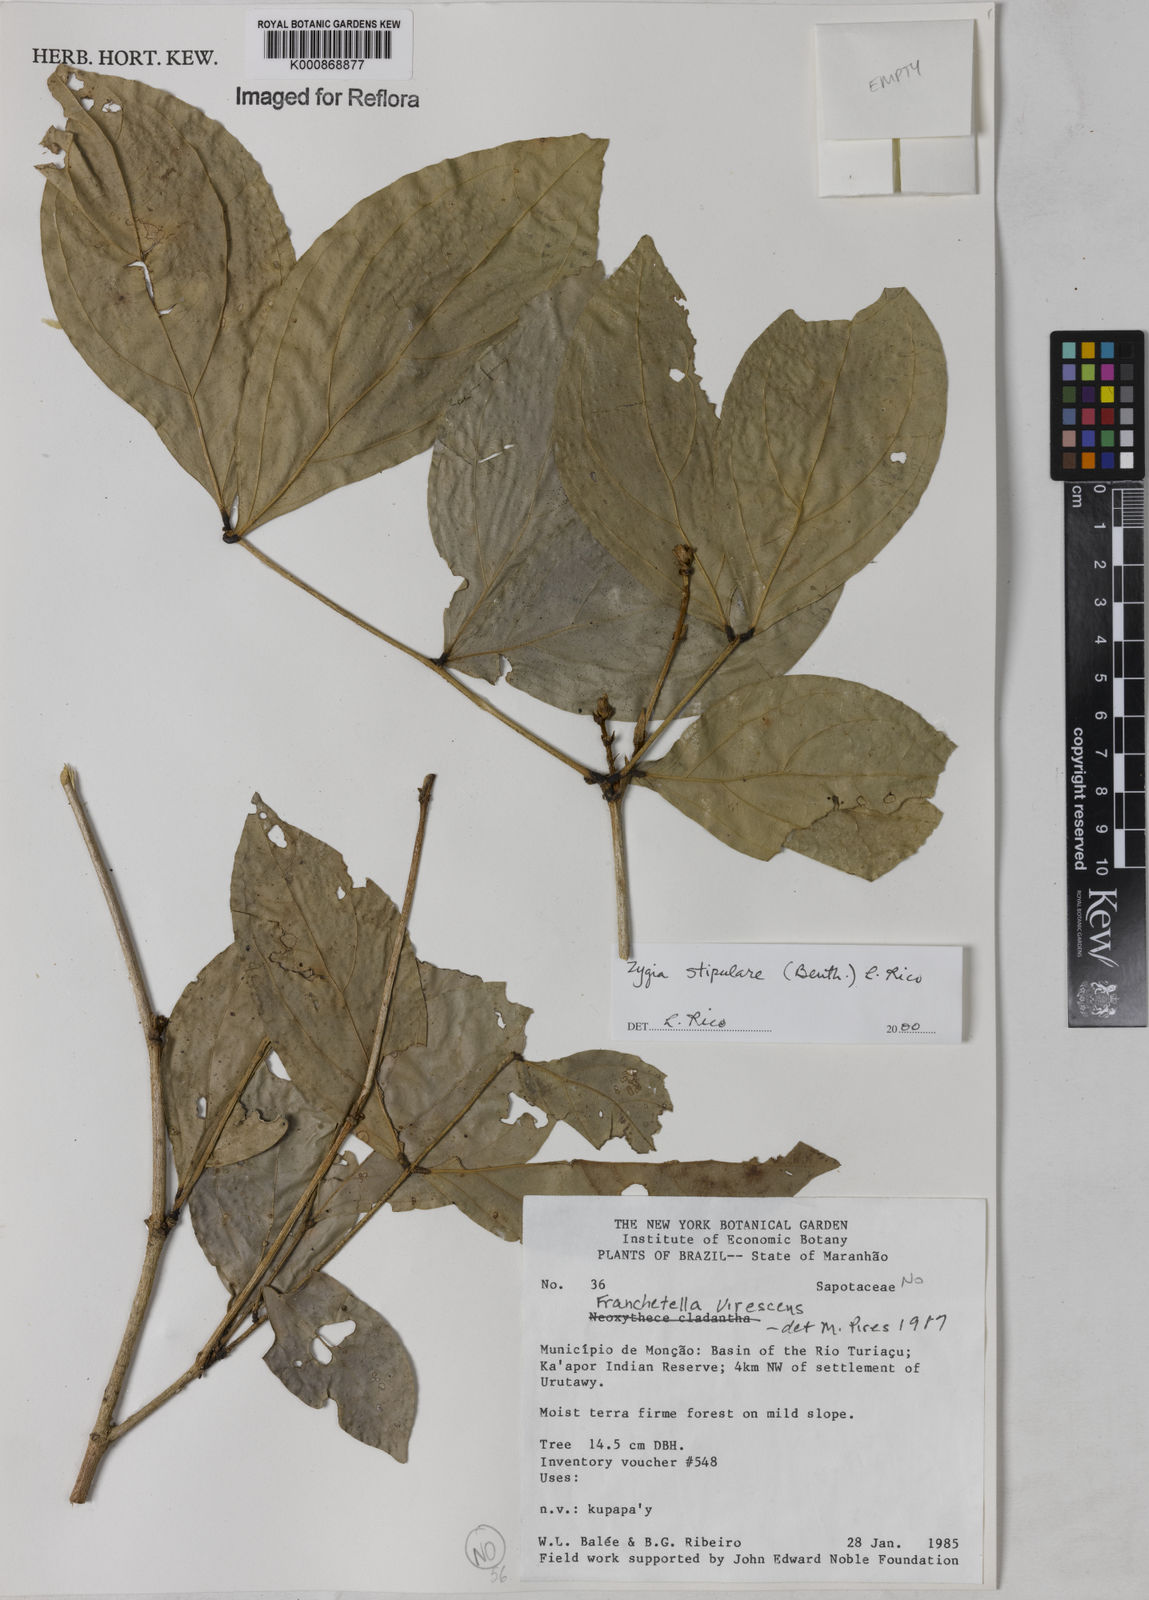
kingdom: Plantae
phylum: Tracheophyta
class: Magnoliopsida
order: Fabales
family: Fabaceae
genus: Zygia
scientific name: Zygia cauliflora
